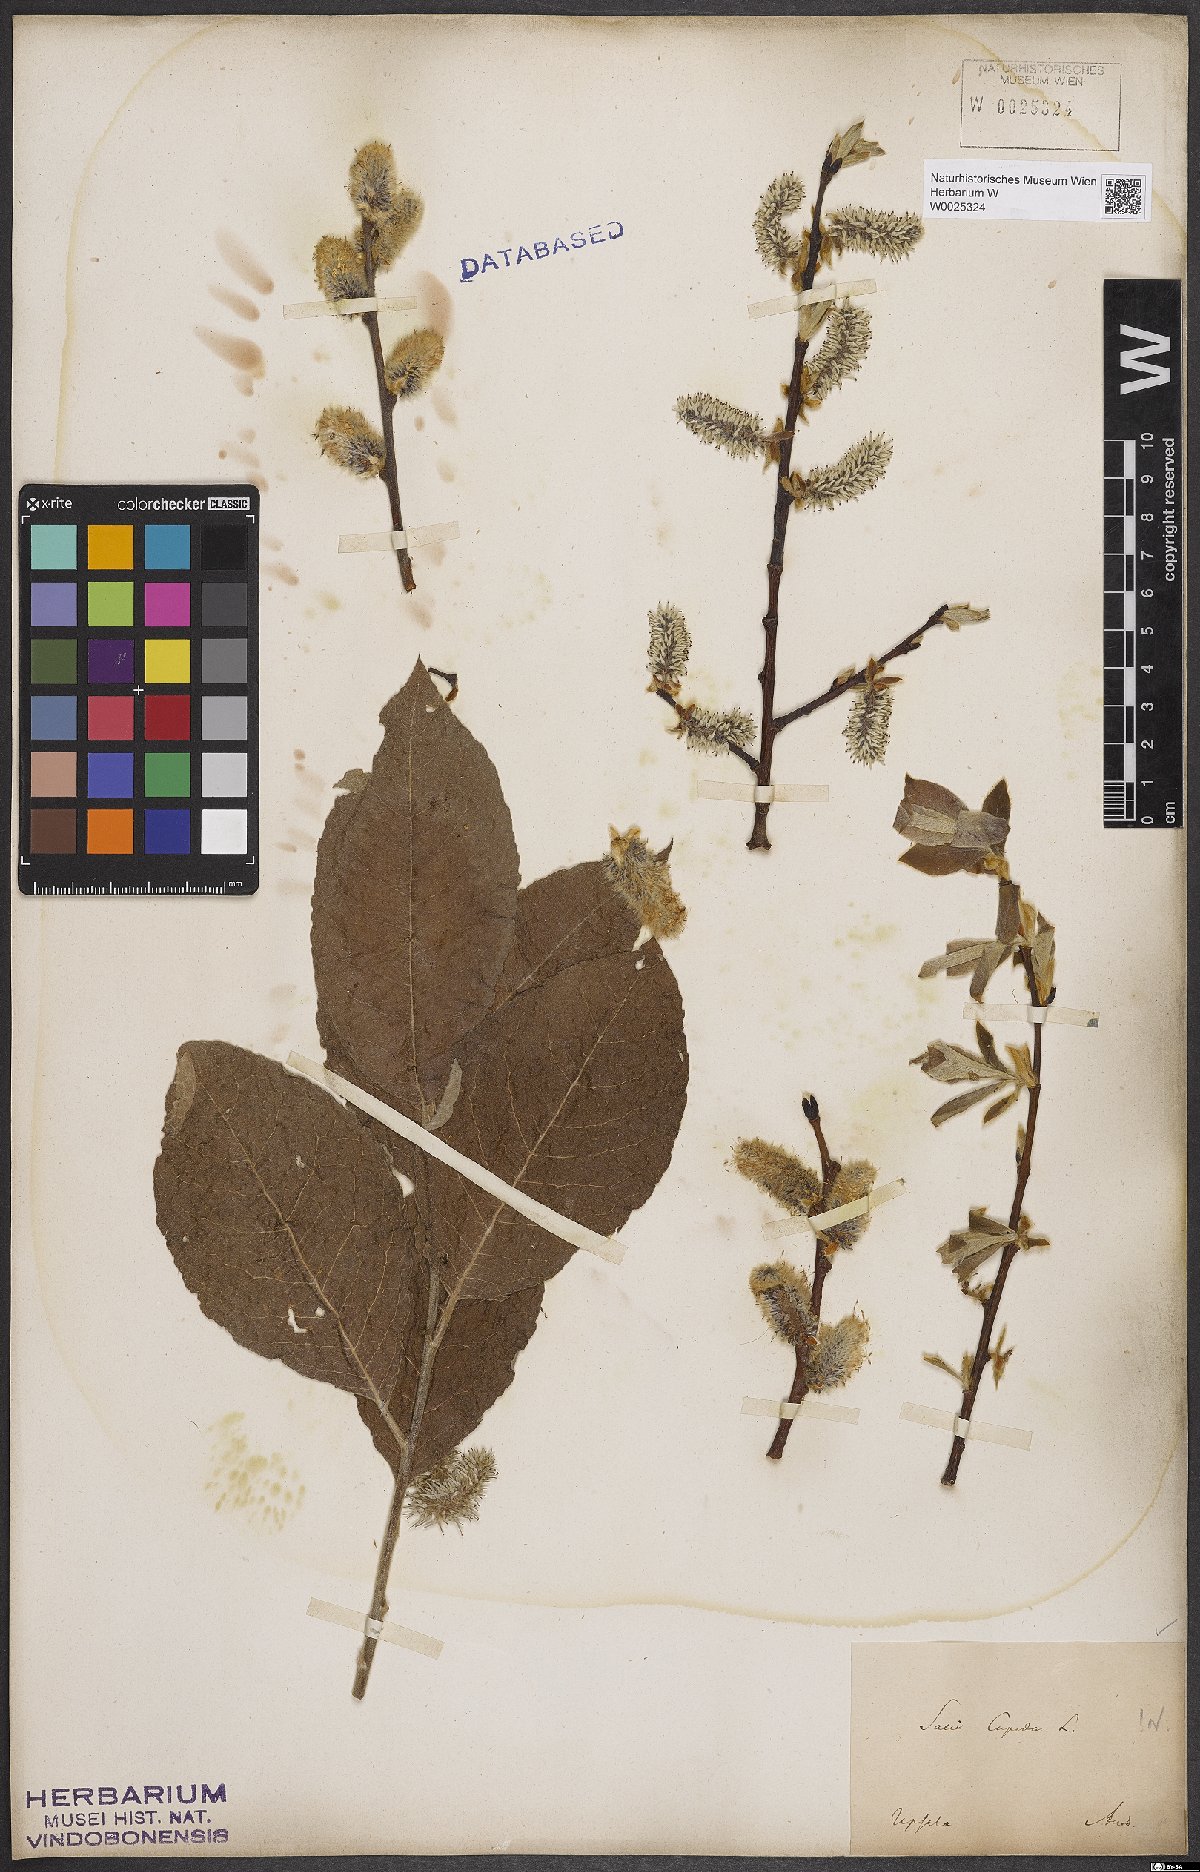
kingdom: Plantae
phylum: Tracheophyta
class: Magnoliopsida
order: Malpighiales
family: Salicaceae
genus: Salix
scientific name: Salix caprea
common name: Goat willow
